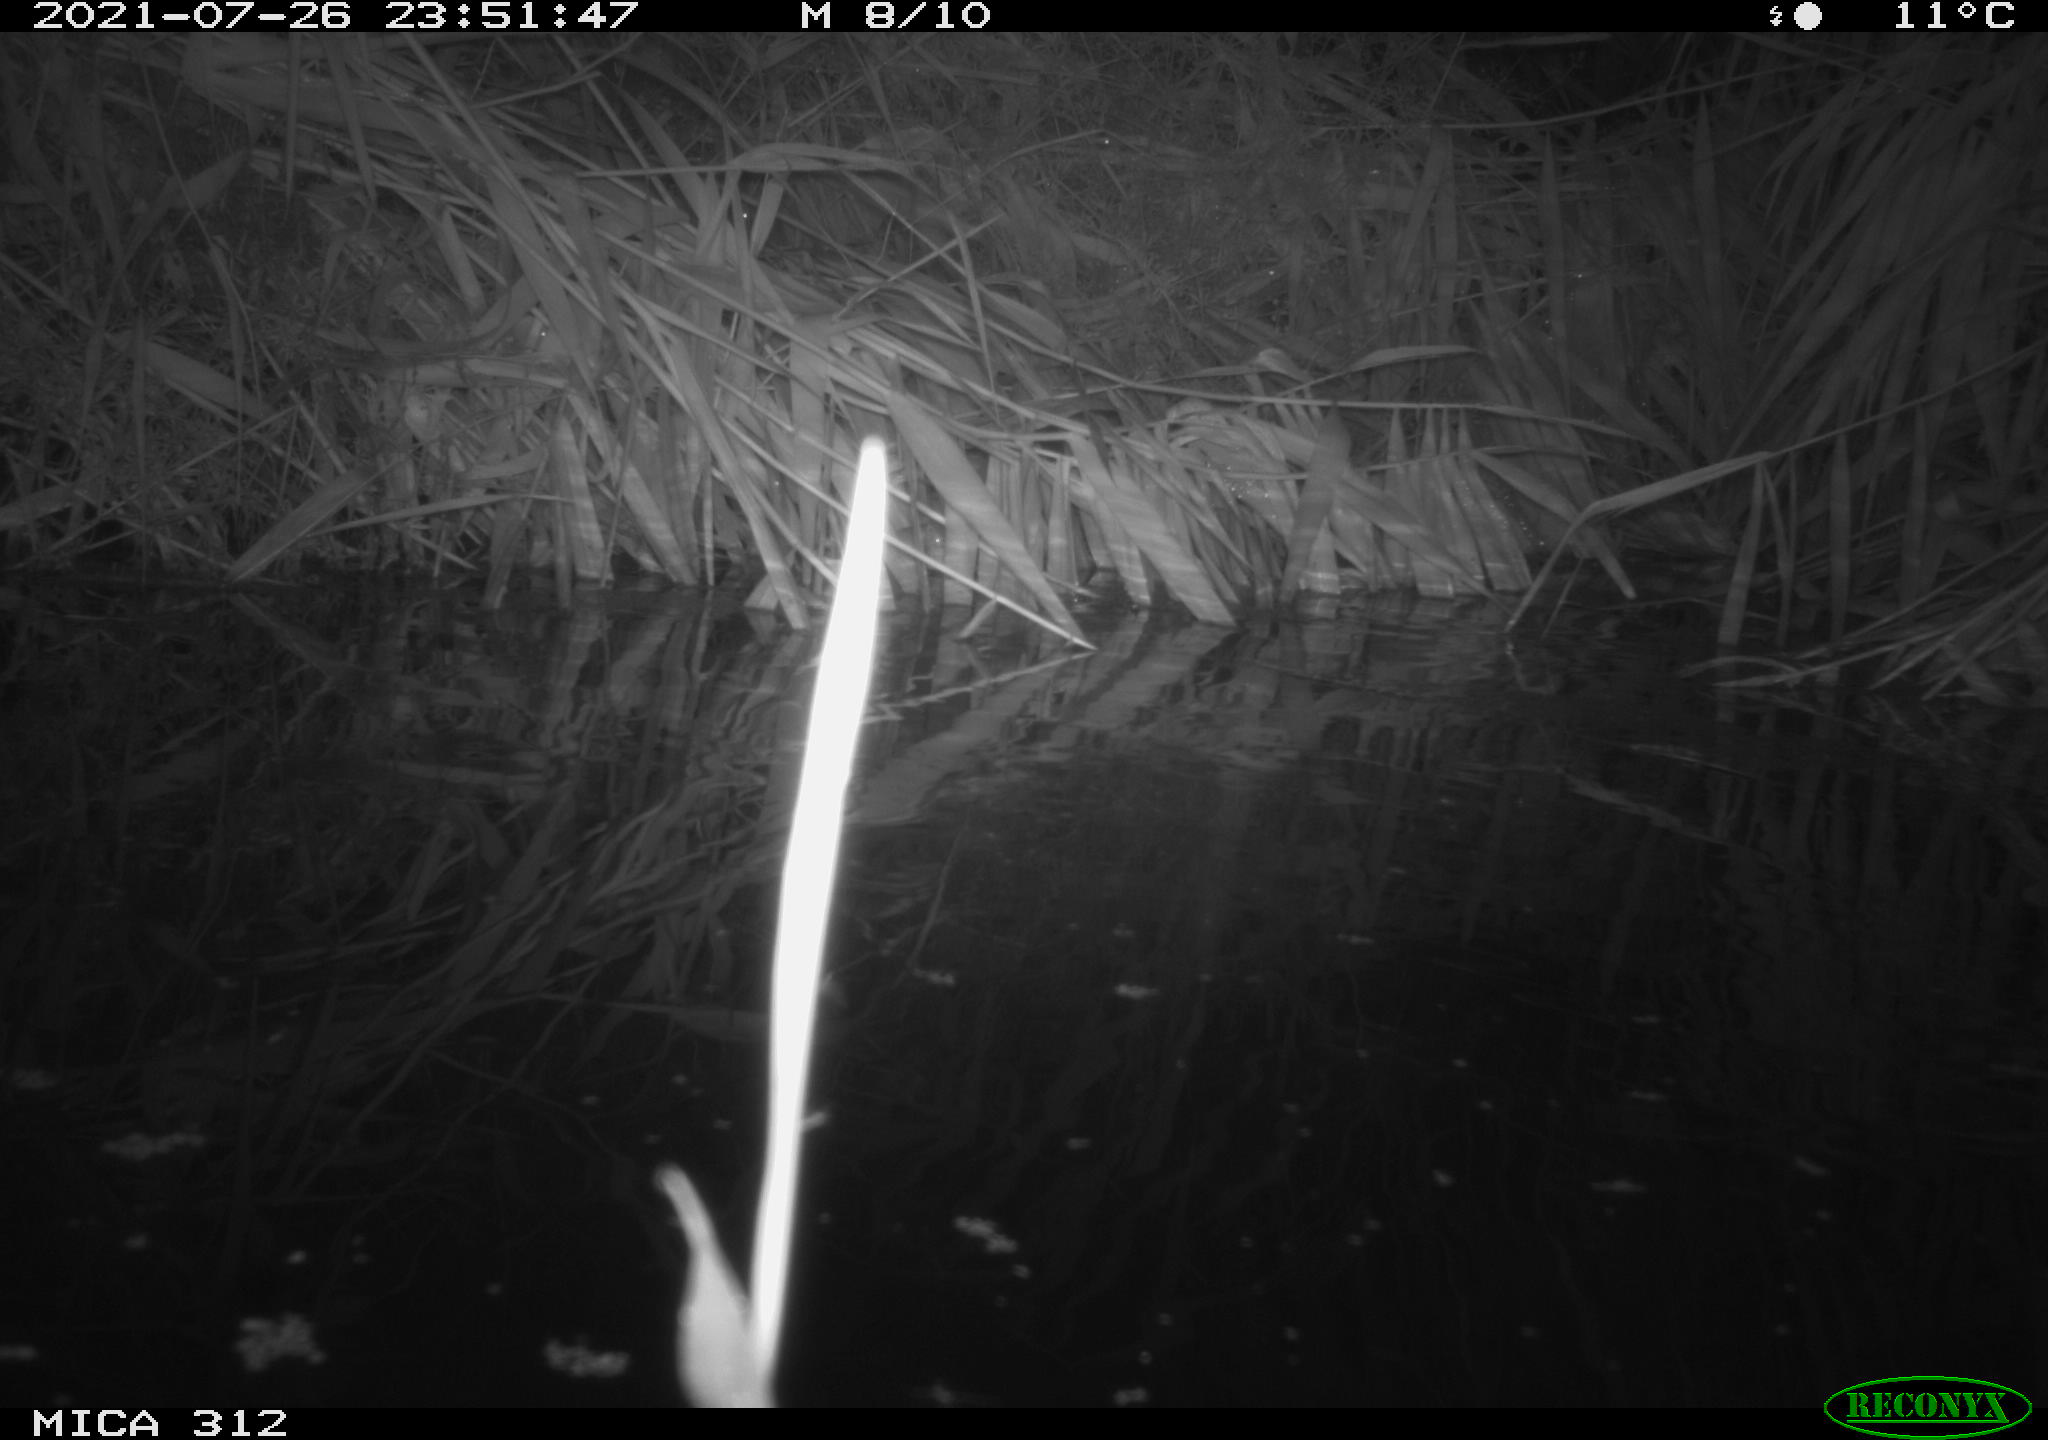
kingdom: Animalia
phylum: Chordata
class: Mammalia
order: Rodentia
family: Muridae
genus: Rattus
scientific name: Rattus norvegicus
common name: Brown rat
